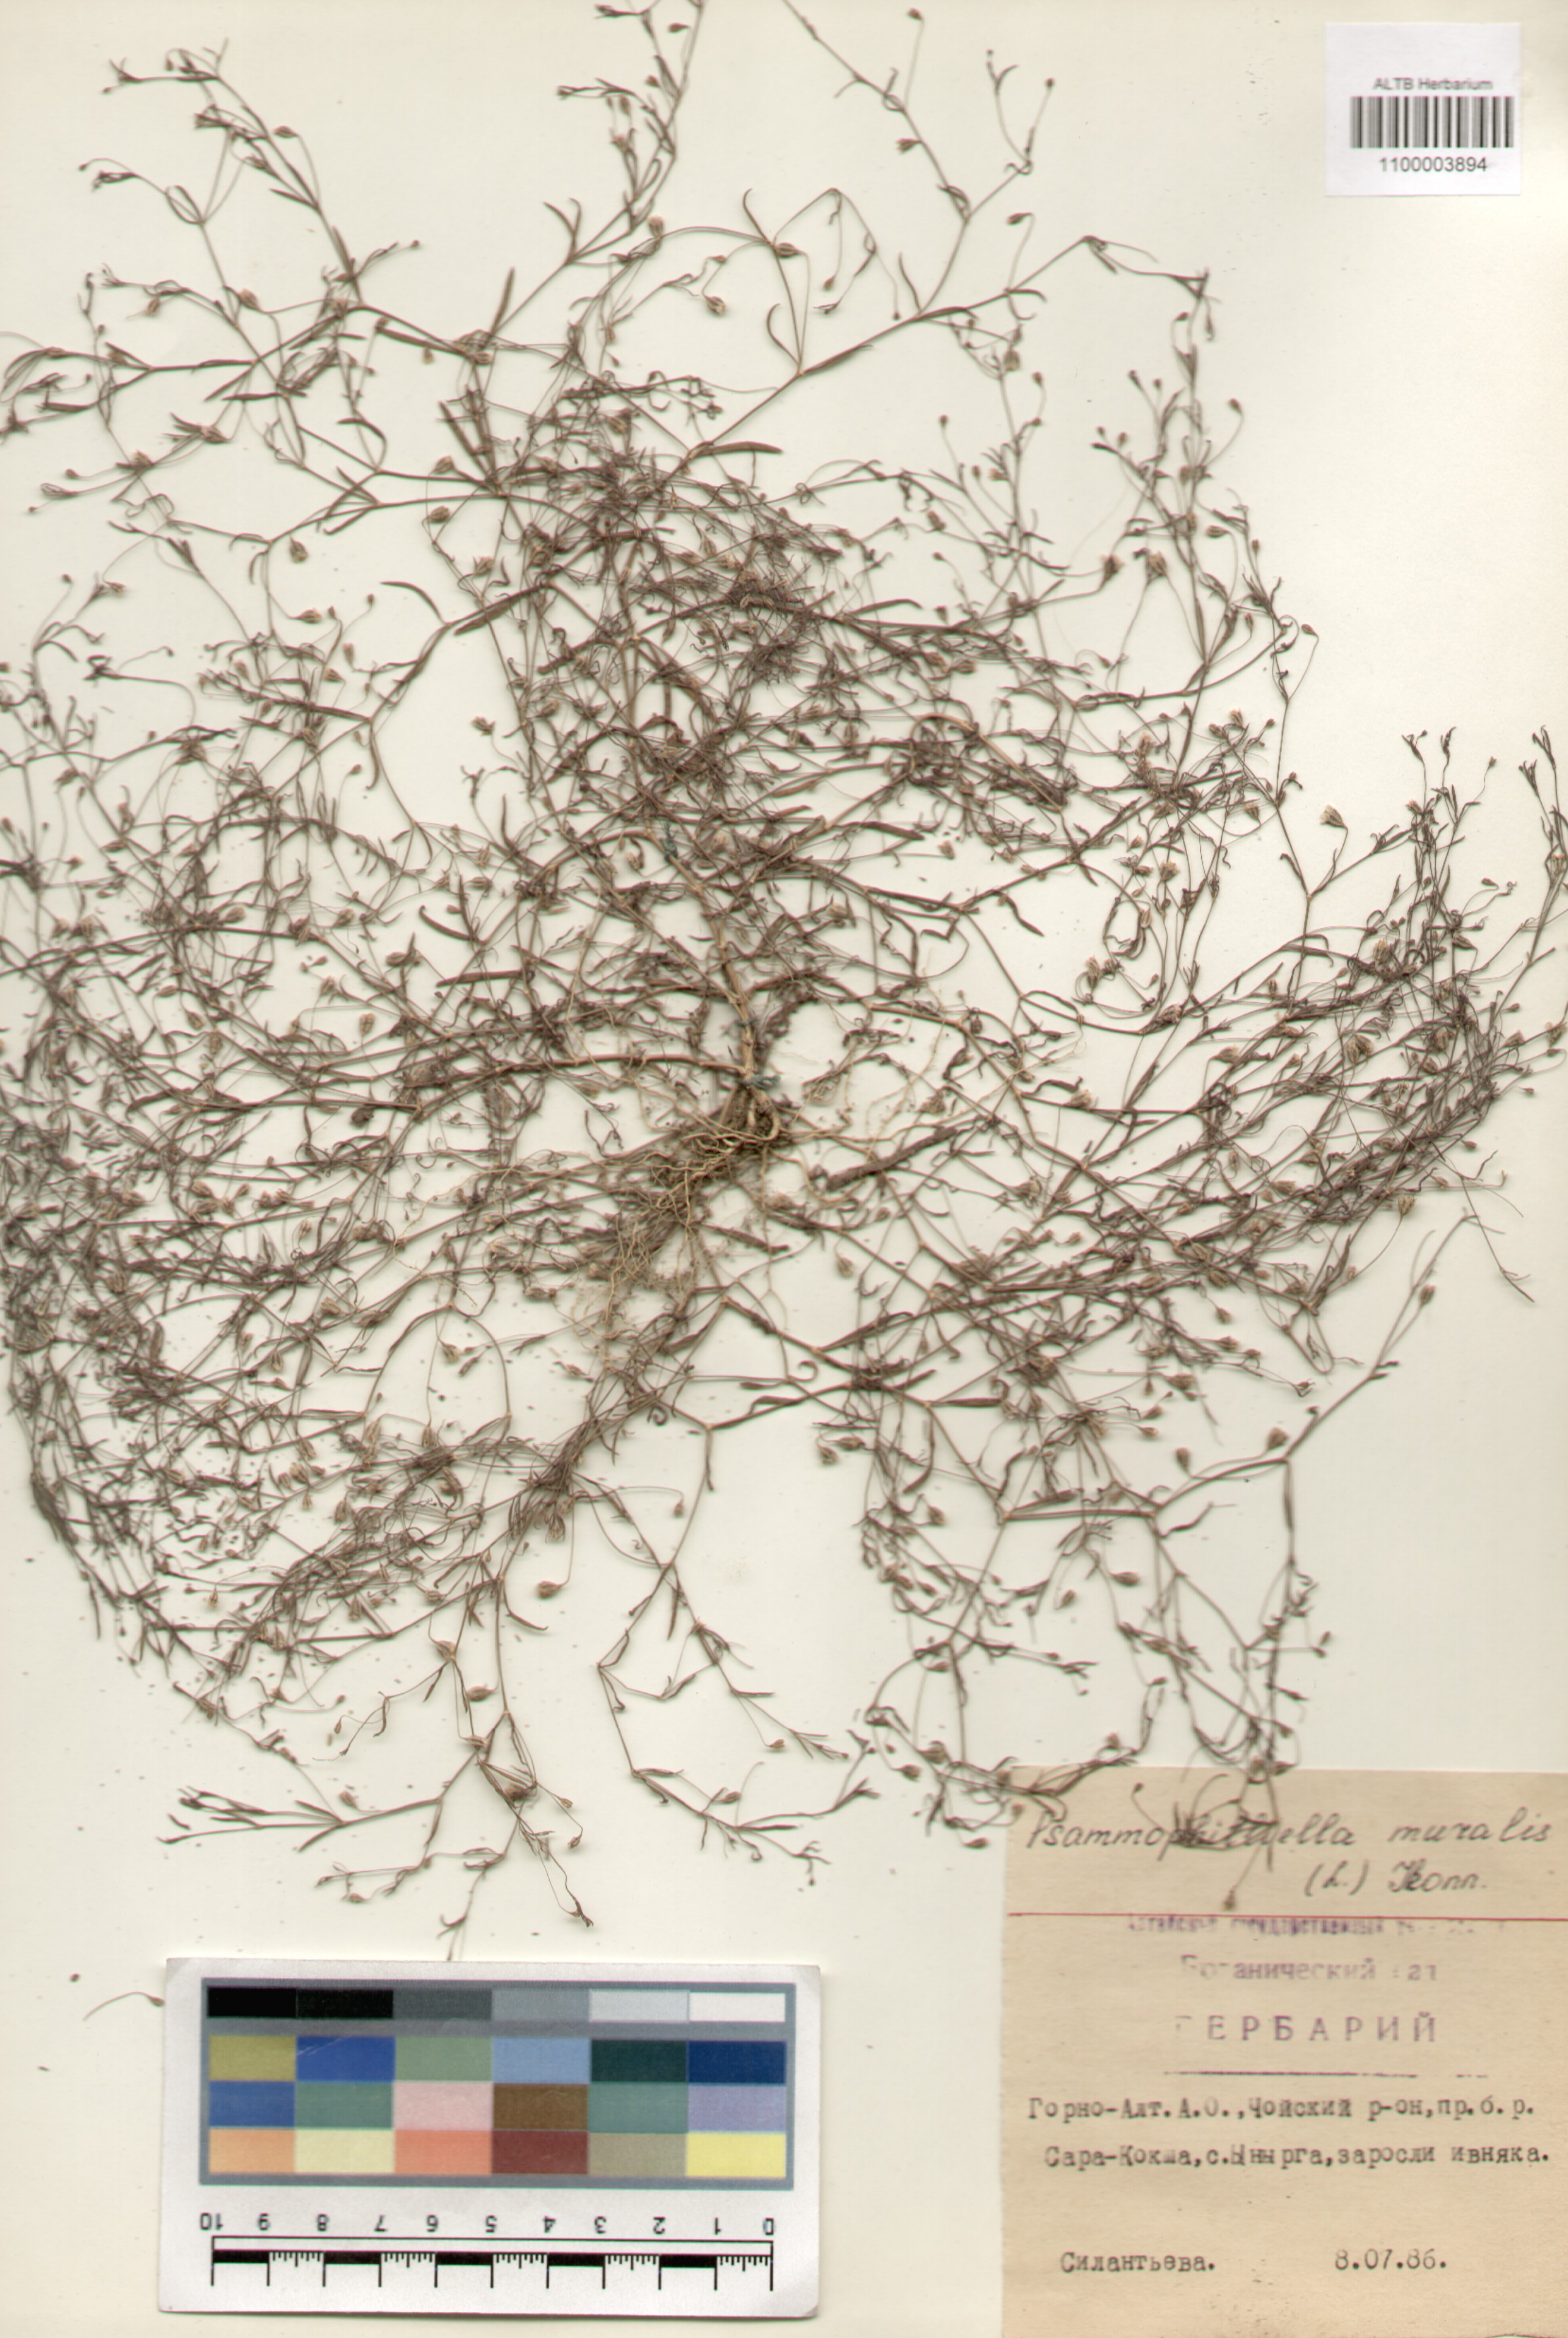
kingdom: Plantae
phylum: Tracheophyta
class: Magnoliopsida
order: Caryophyllales
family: Caryophyllaceae
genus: Psammophiliella
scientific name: Psammophiliella muralis
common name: Cushion baby's-breath
